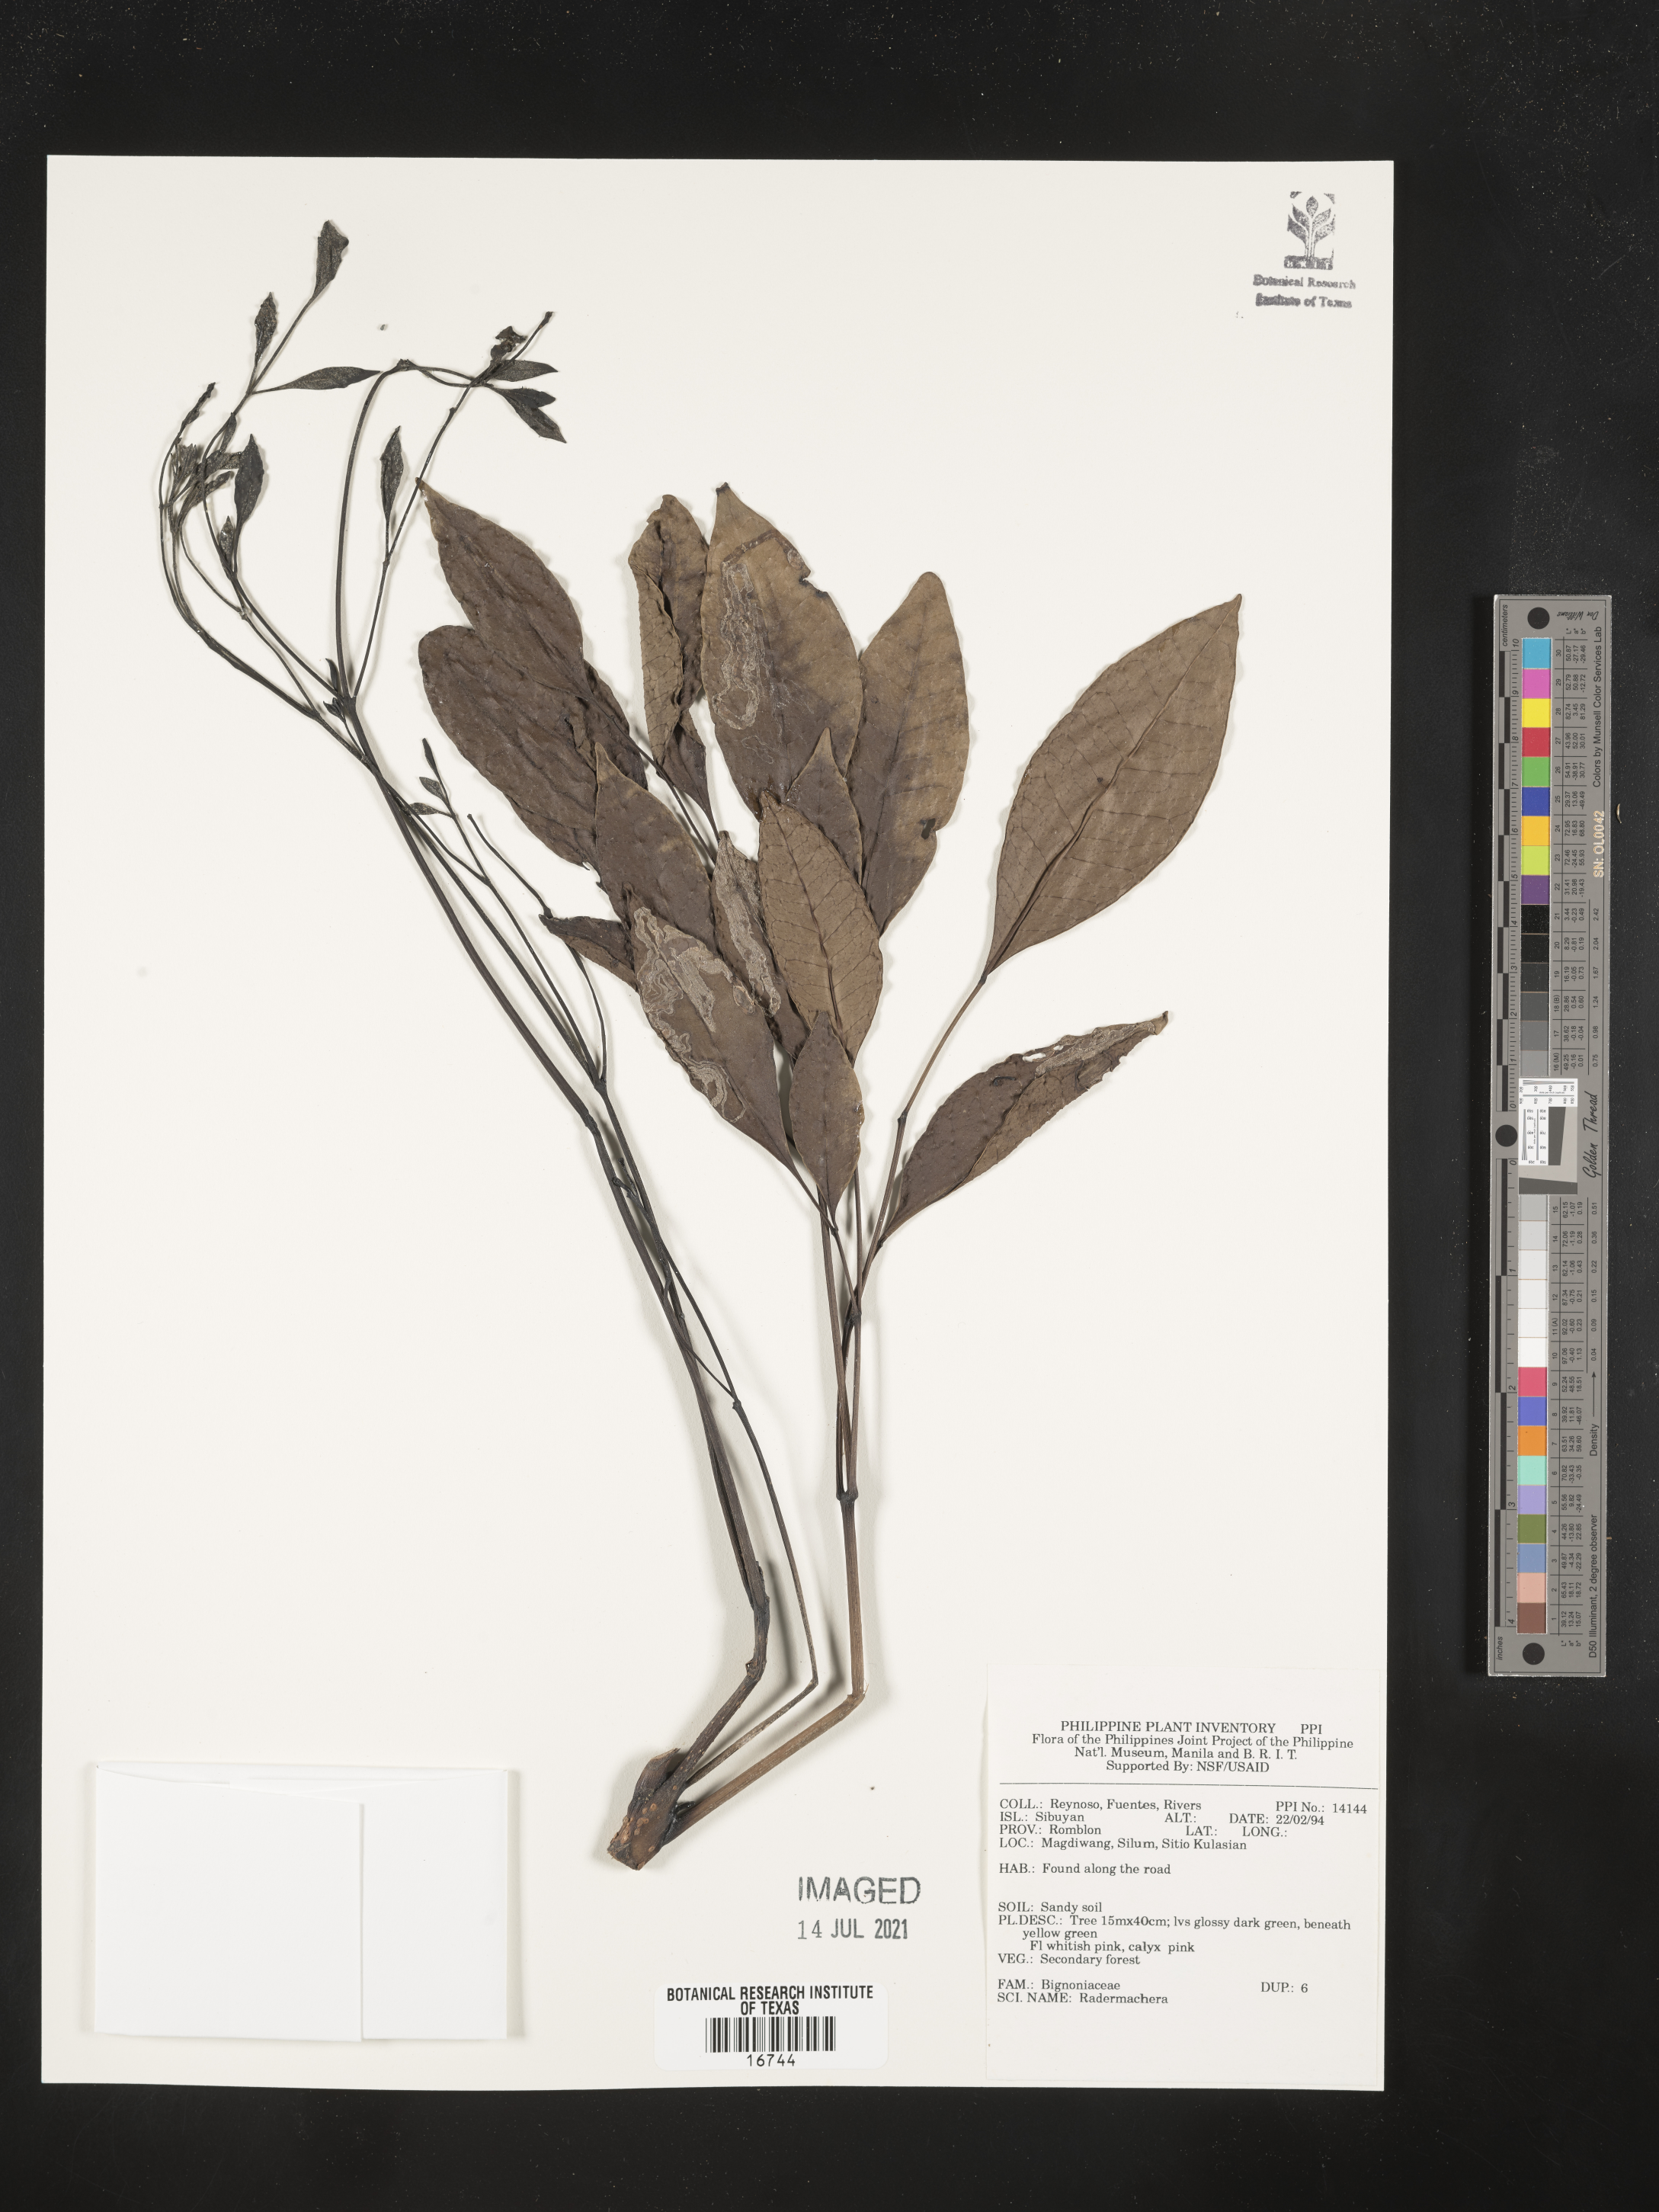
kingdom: Plantae
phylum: Tracheophyta
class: Magnoliopsida
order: Lamiales
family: Bignoniaceae
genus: Radermachera
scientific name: Radermachera
